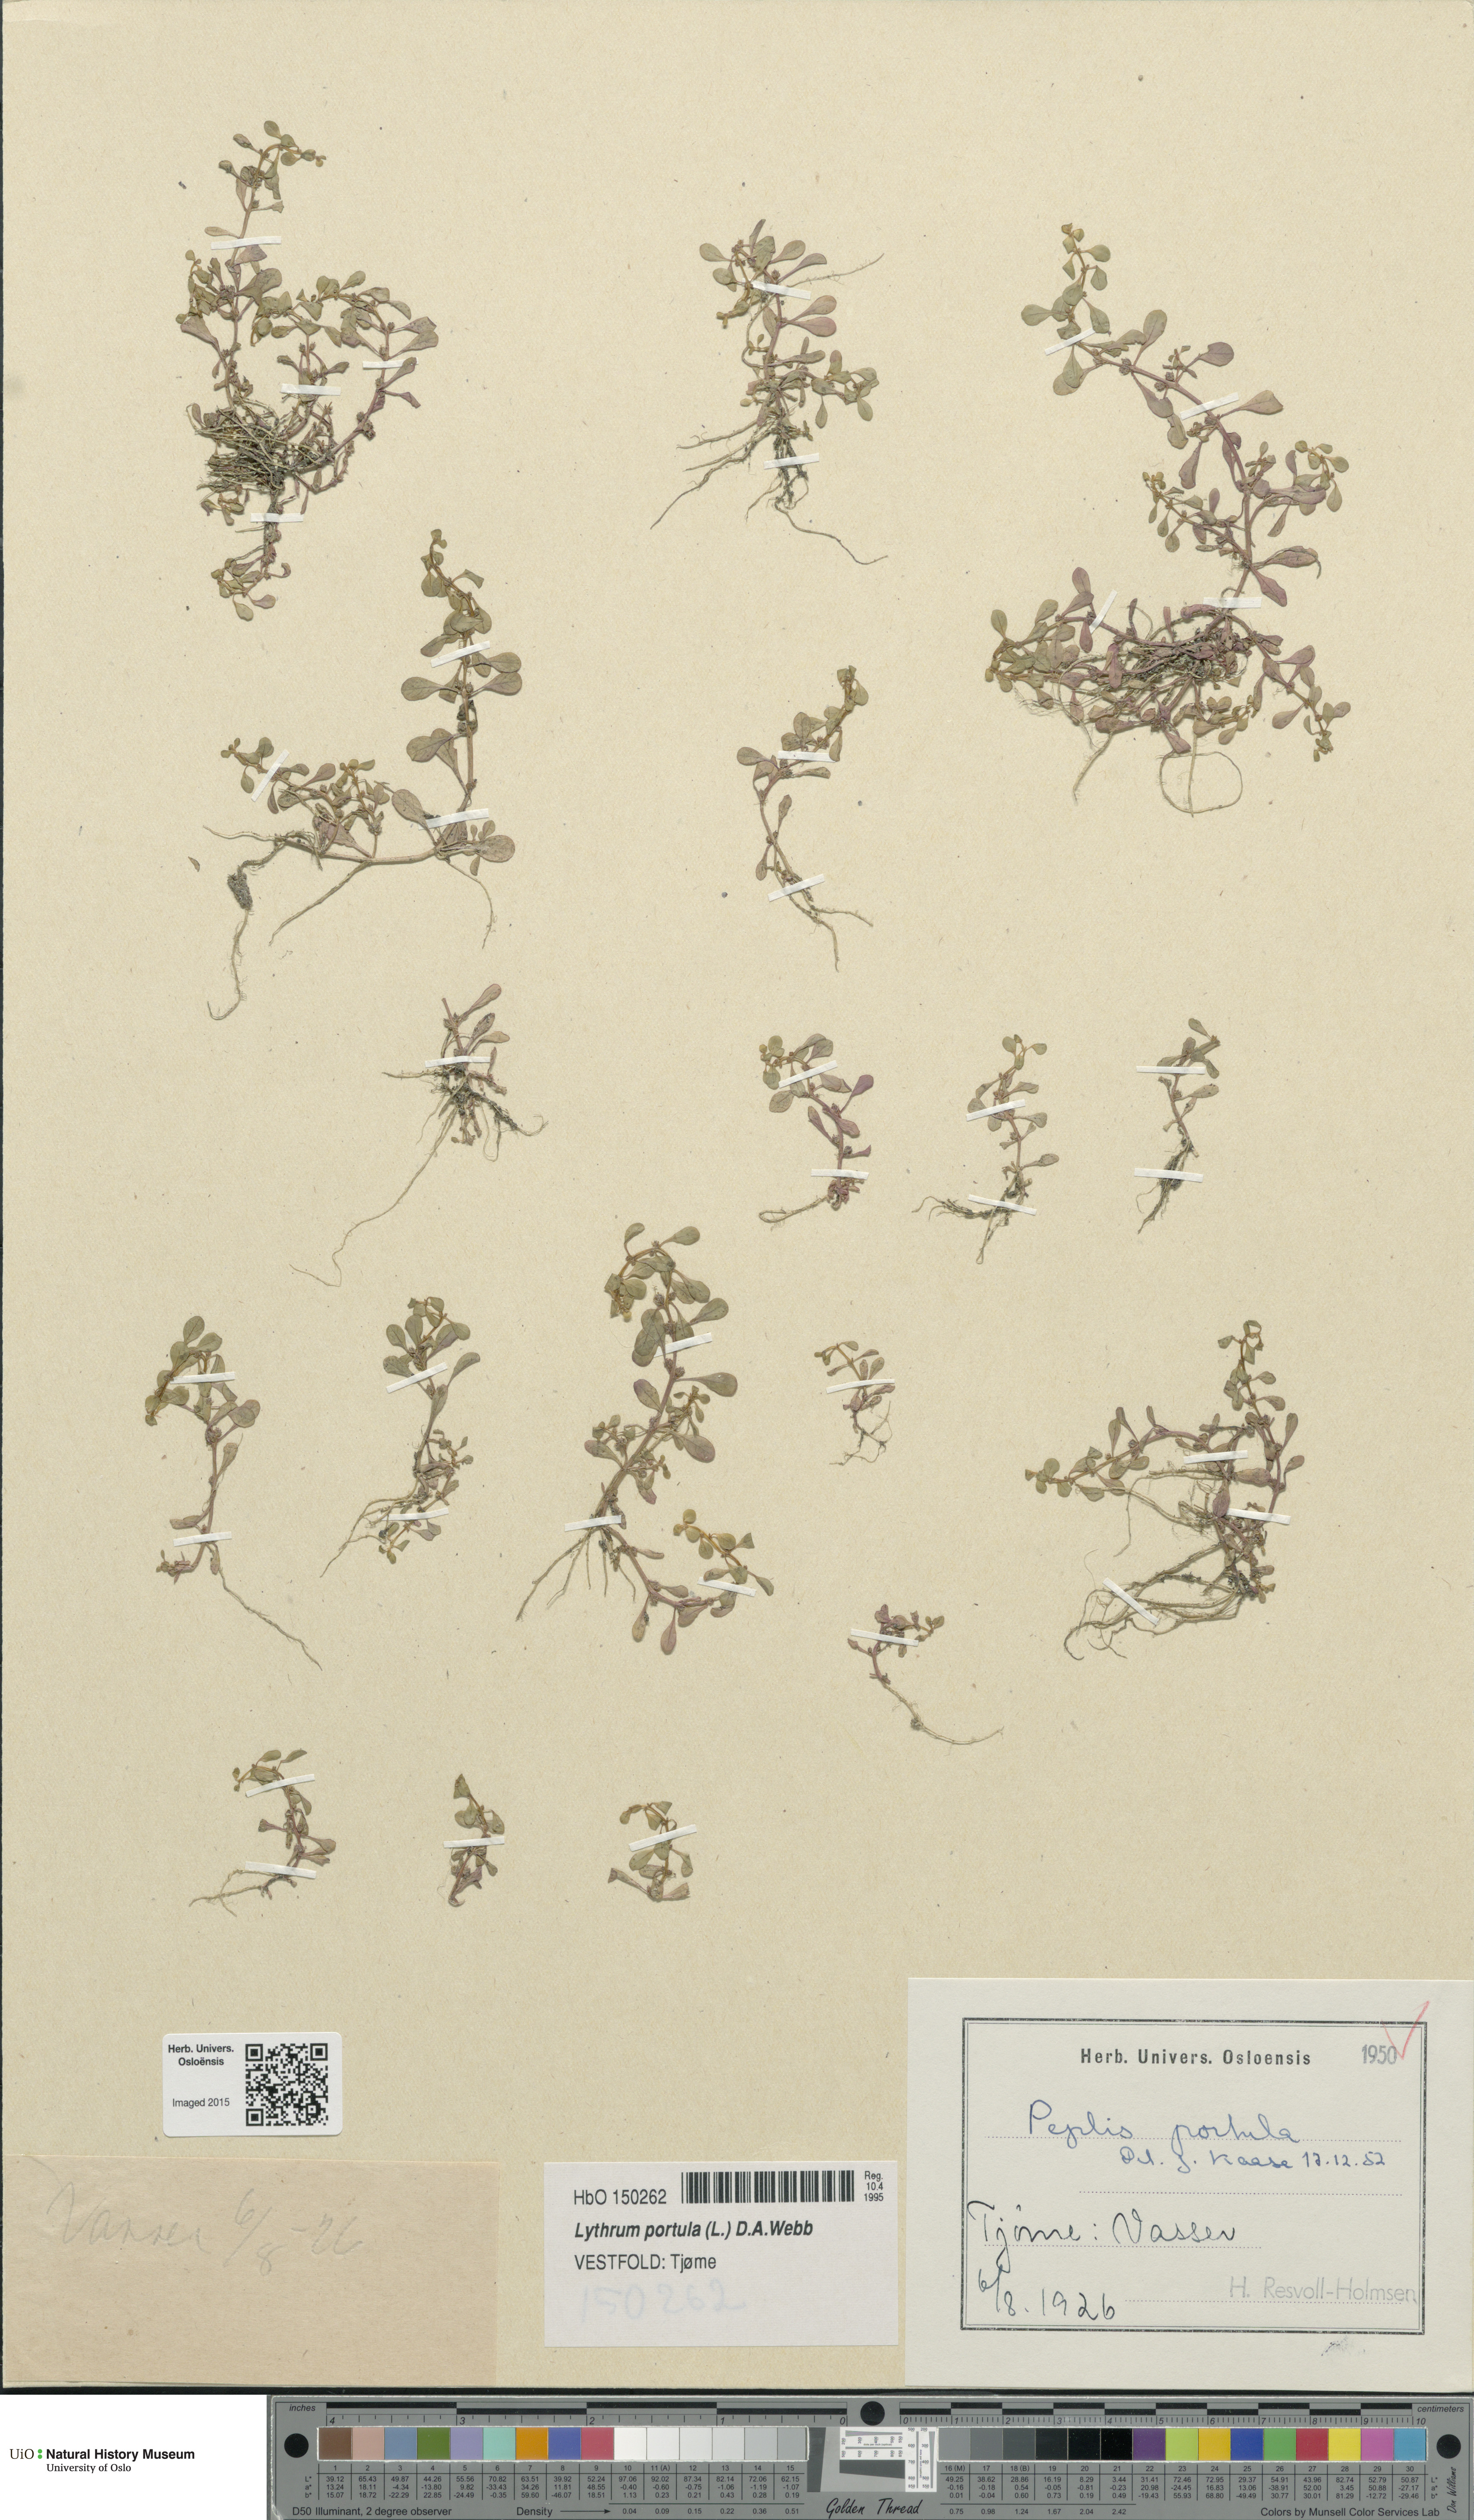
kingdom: Plantae
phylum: Tracheophyta
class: Magnoliopsida
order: Myrtales
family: Lythraceae
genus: Lythrum
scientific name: Lythrum portula
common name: Water purslane
